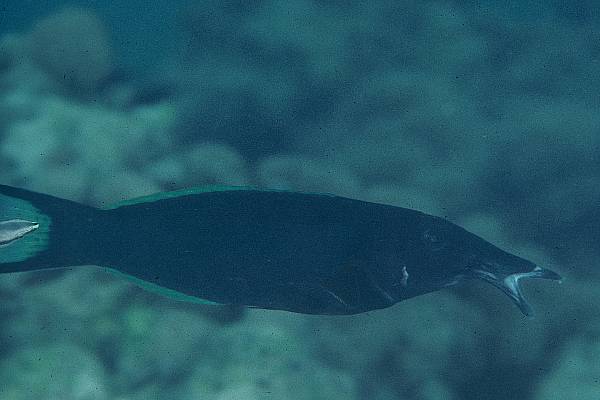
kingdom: Animalia
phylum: Chordata
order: Perciformes
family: Labridae
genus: Gomphosus
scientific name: Gomphosus
